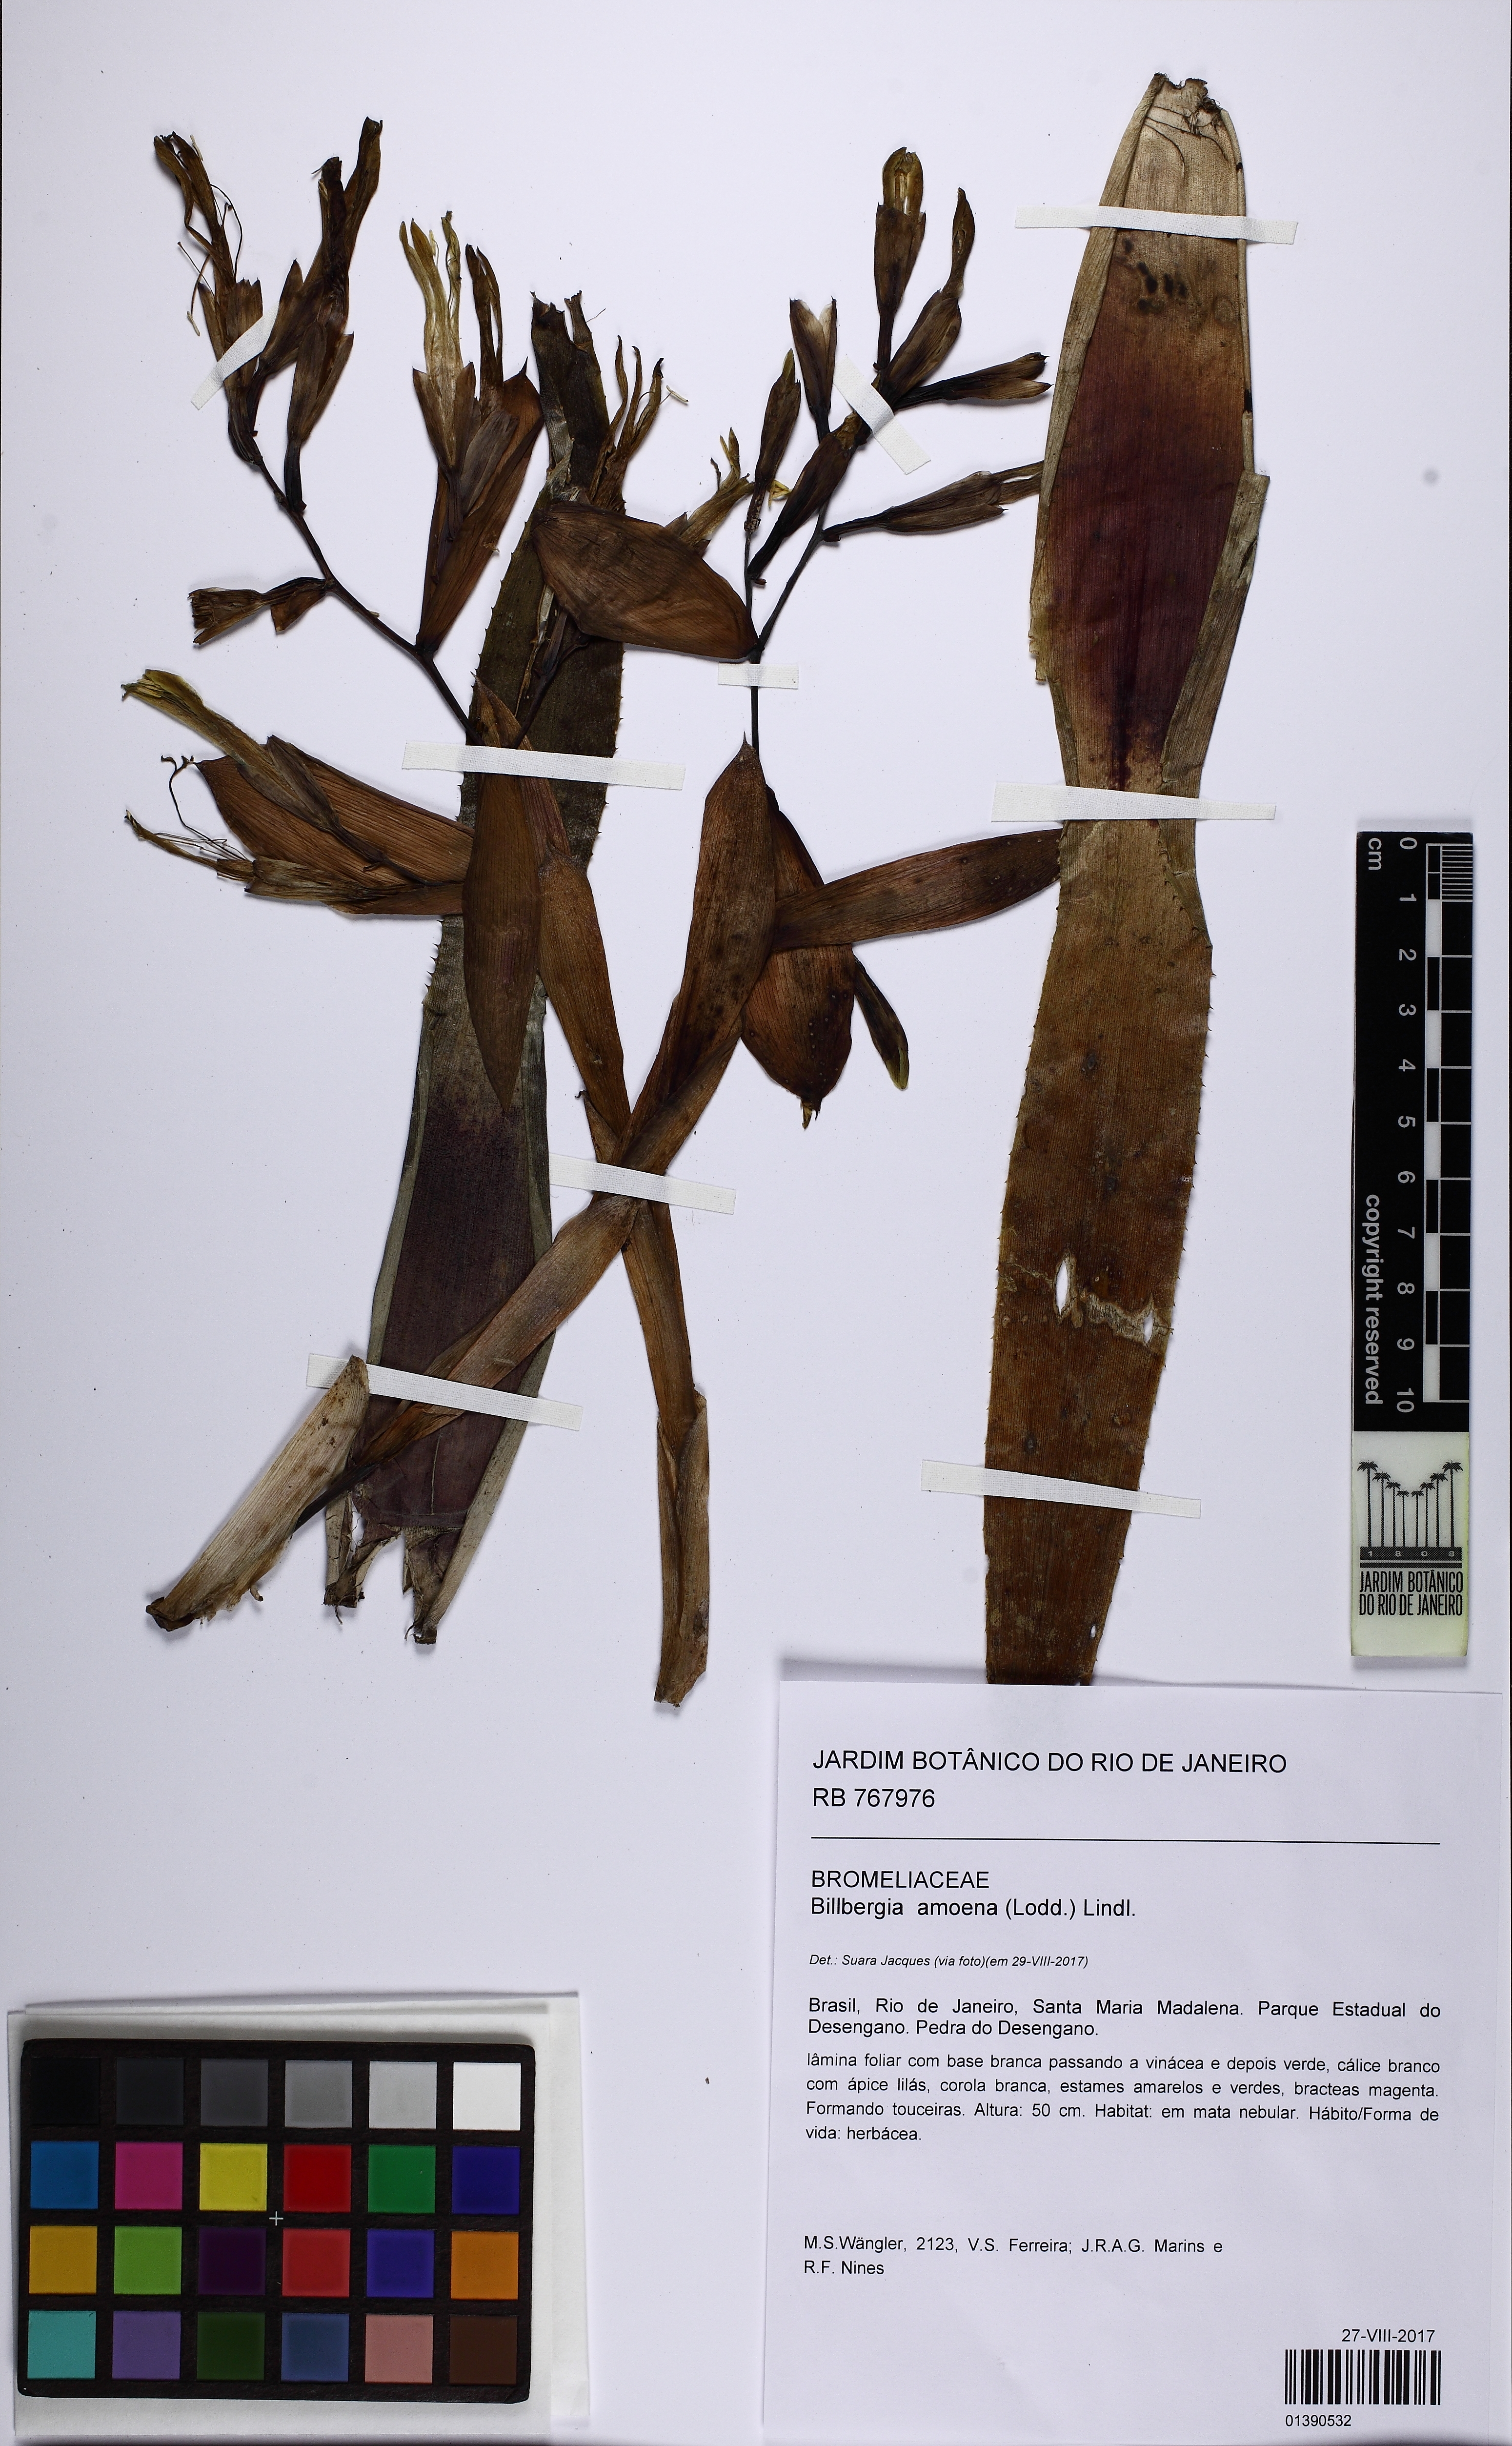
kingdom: Plantae
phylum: Tracheophyta
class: Liliopsida
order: Poales
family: Bromeliaceae
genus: Billbergia
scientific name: Billbergia amoena
